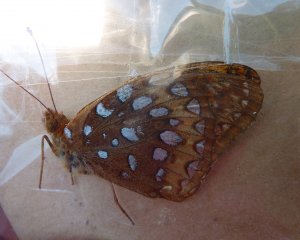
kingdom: Animalia
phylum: Arthropoda
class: Insecta
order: Lepidoptera
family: Nymphalidae
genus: Speyeria
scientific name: Speyeria cybele
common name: Great Spangled Fritillary
